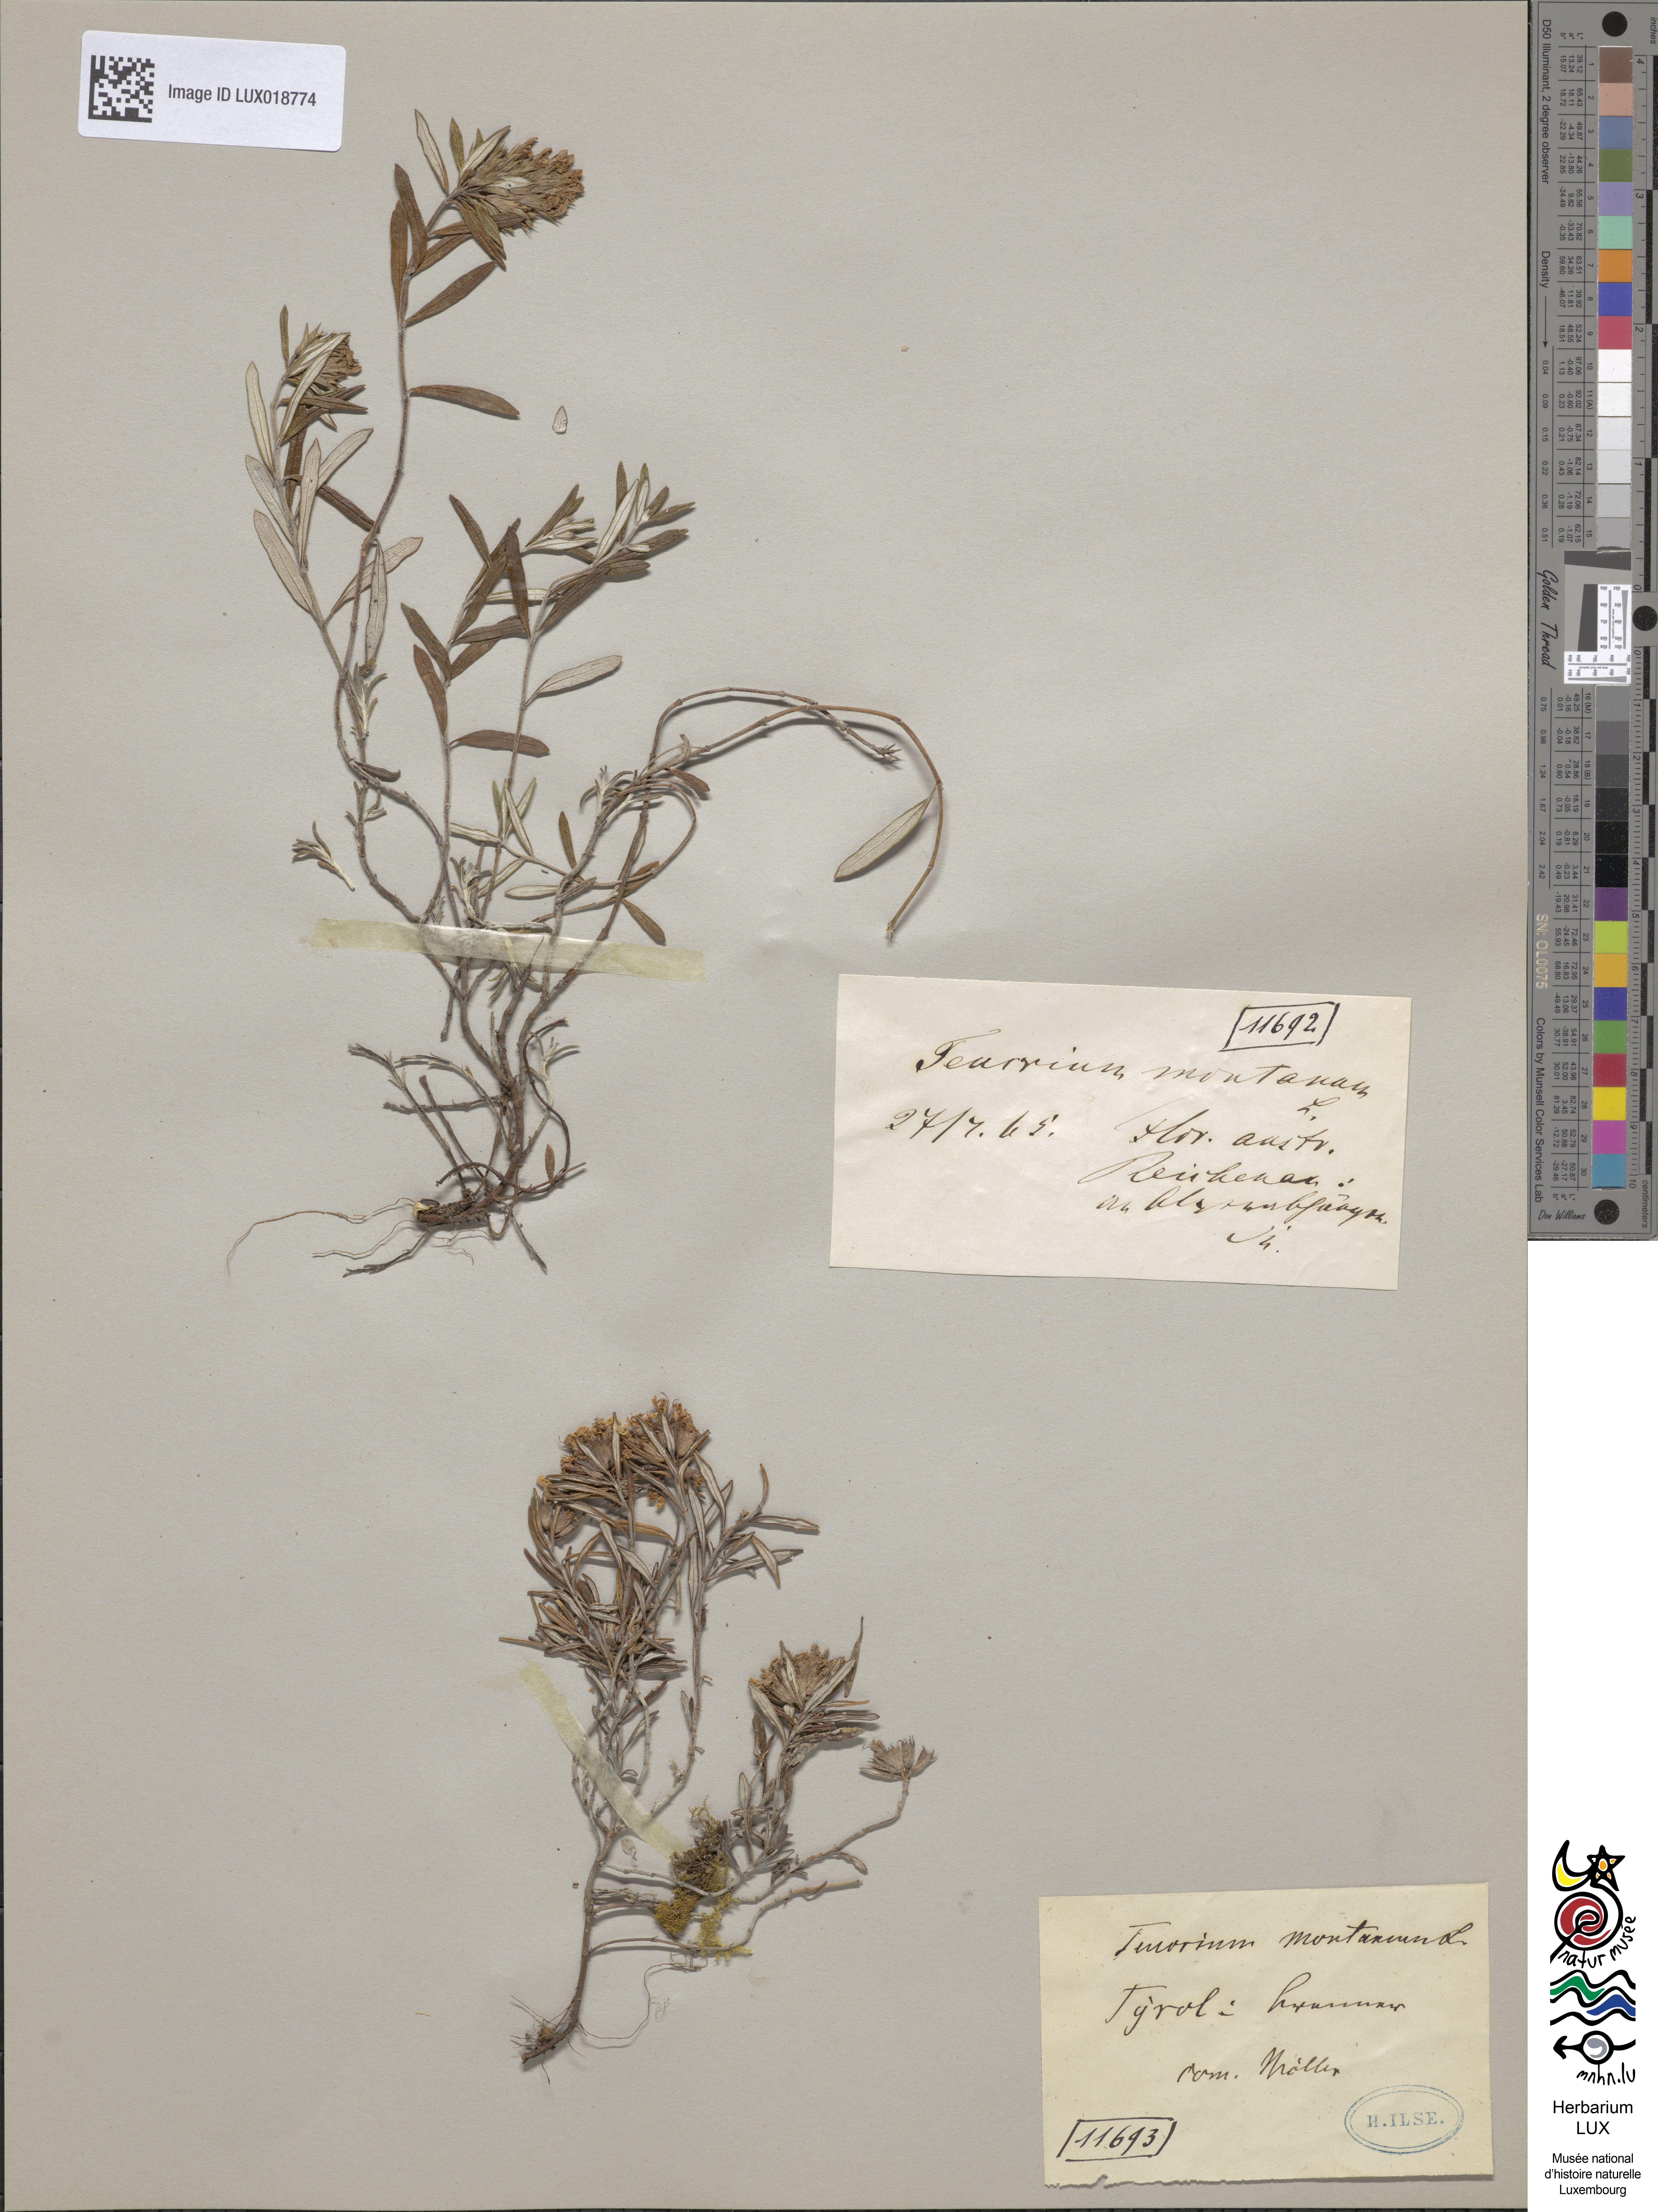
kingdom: Plantae
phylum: Tracheophyta
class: Magnoliopsida
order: Lamiales
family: Lamiaceae
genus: Teucrium
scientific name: Teucrium montanum
